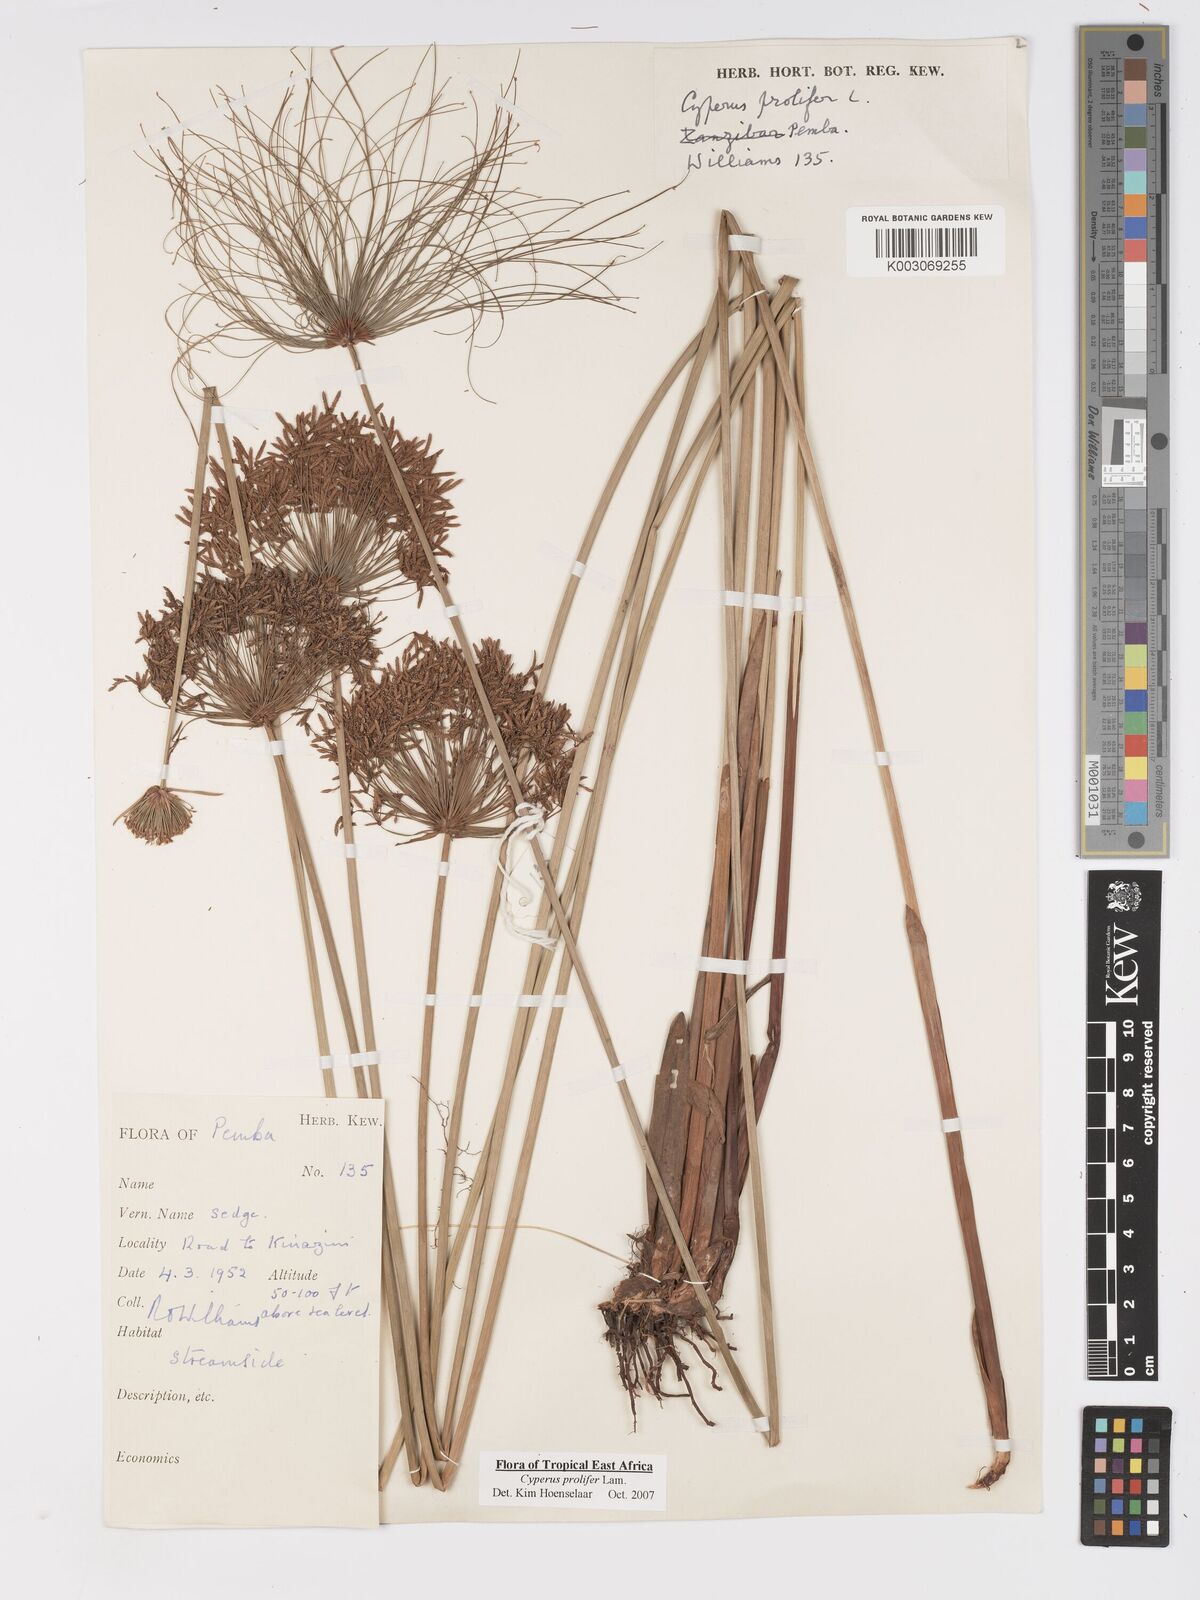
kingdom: Plantae
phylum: Tracheophyta
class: Liliopsida
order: Poales
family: Cyperaceae
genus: Cyperus
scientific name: Cyperus prolifer
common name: Miniature flatsedge
